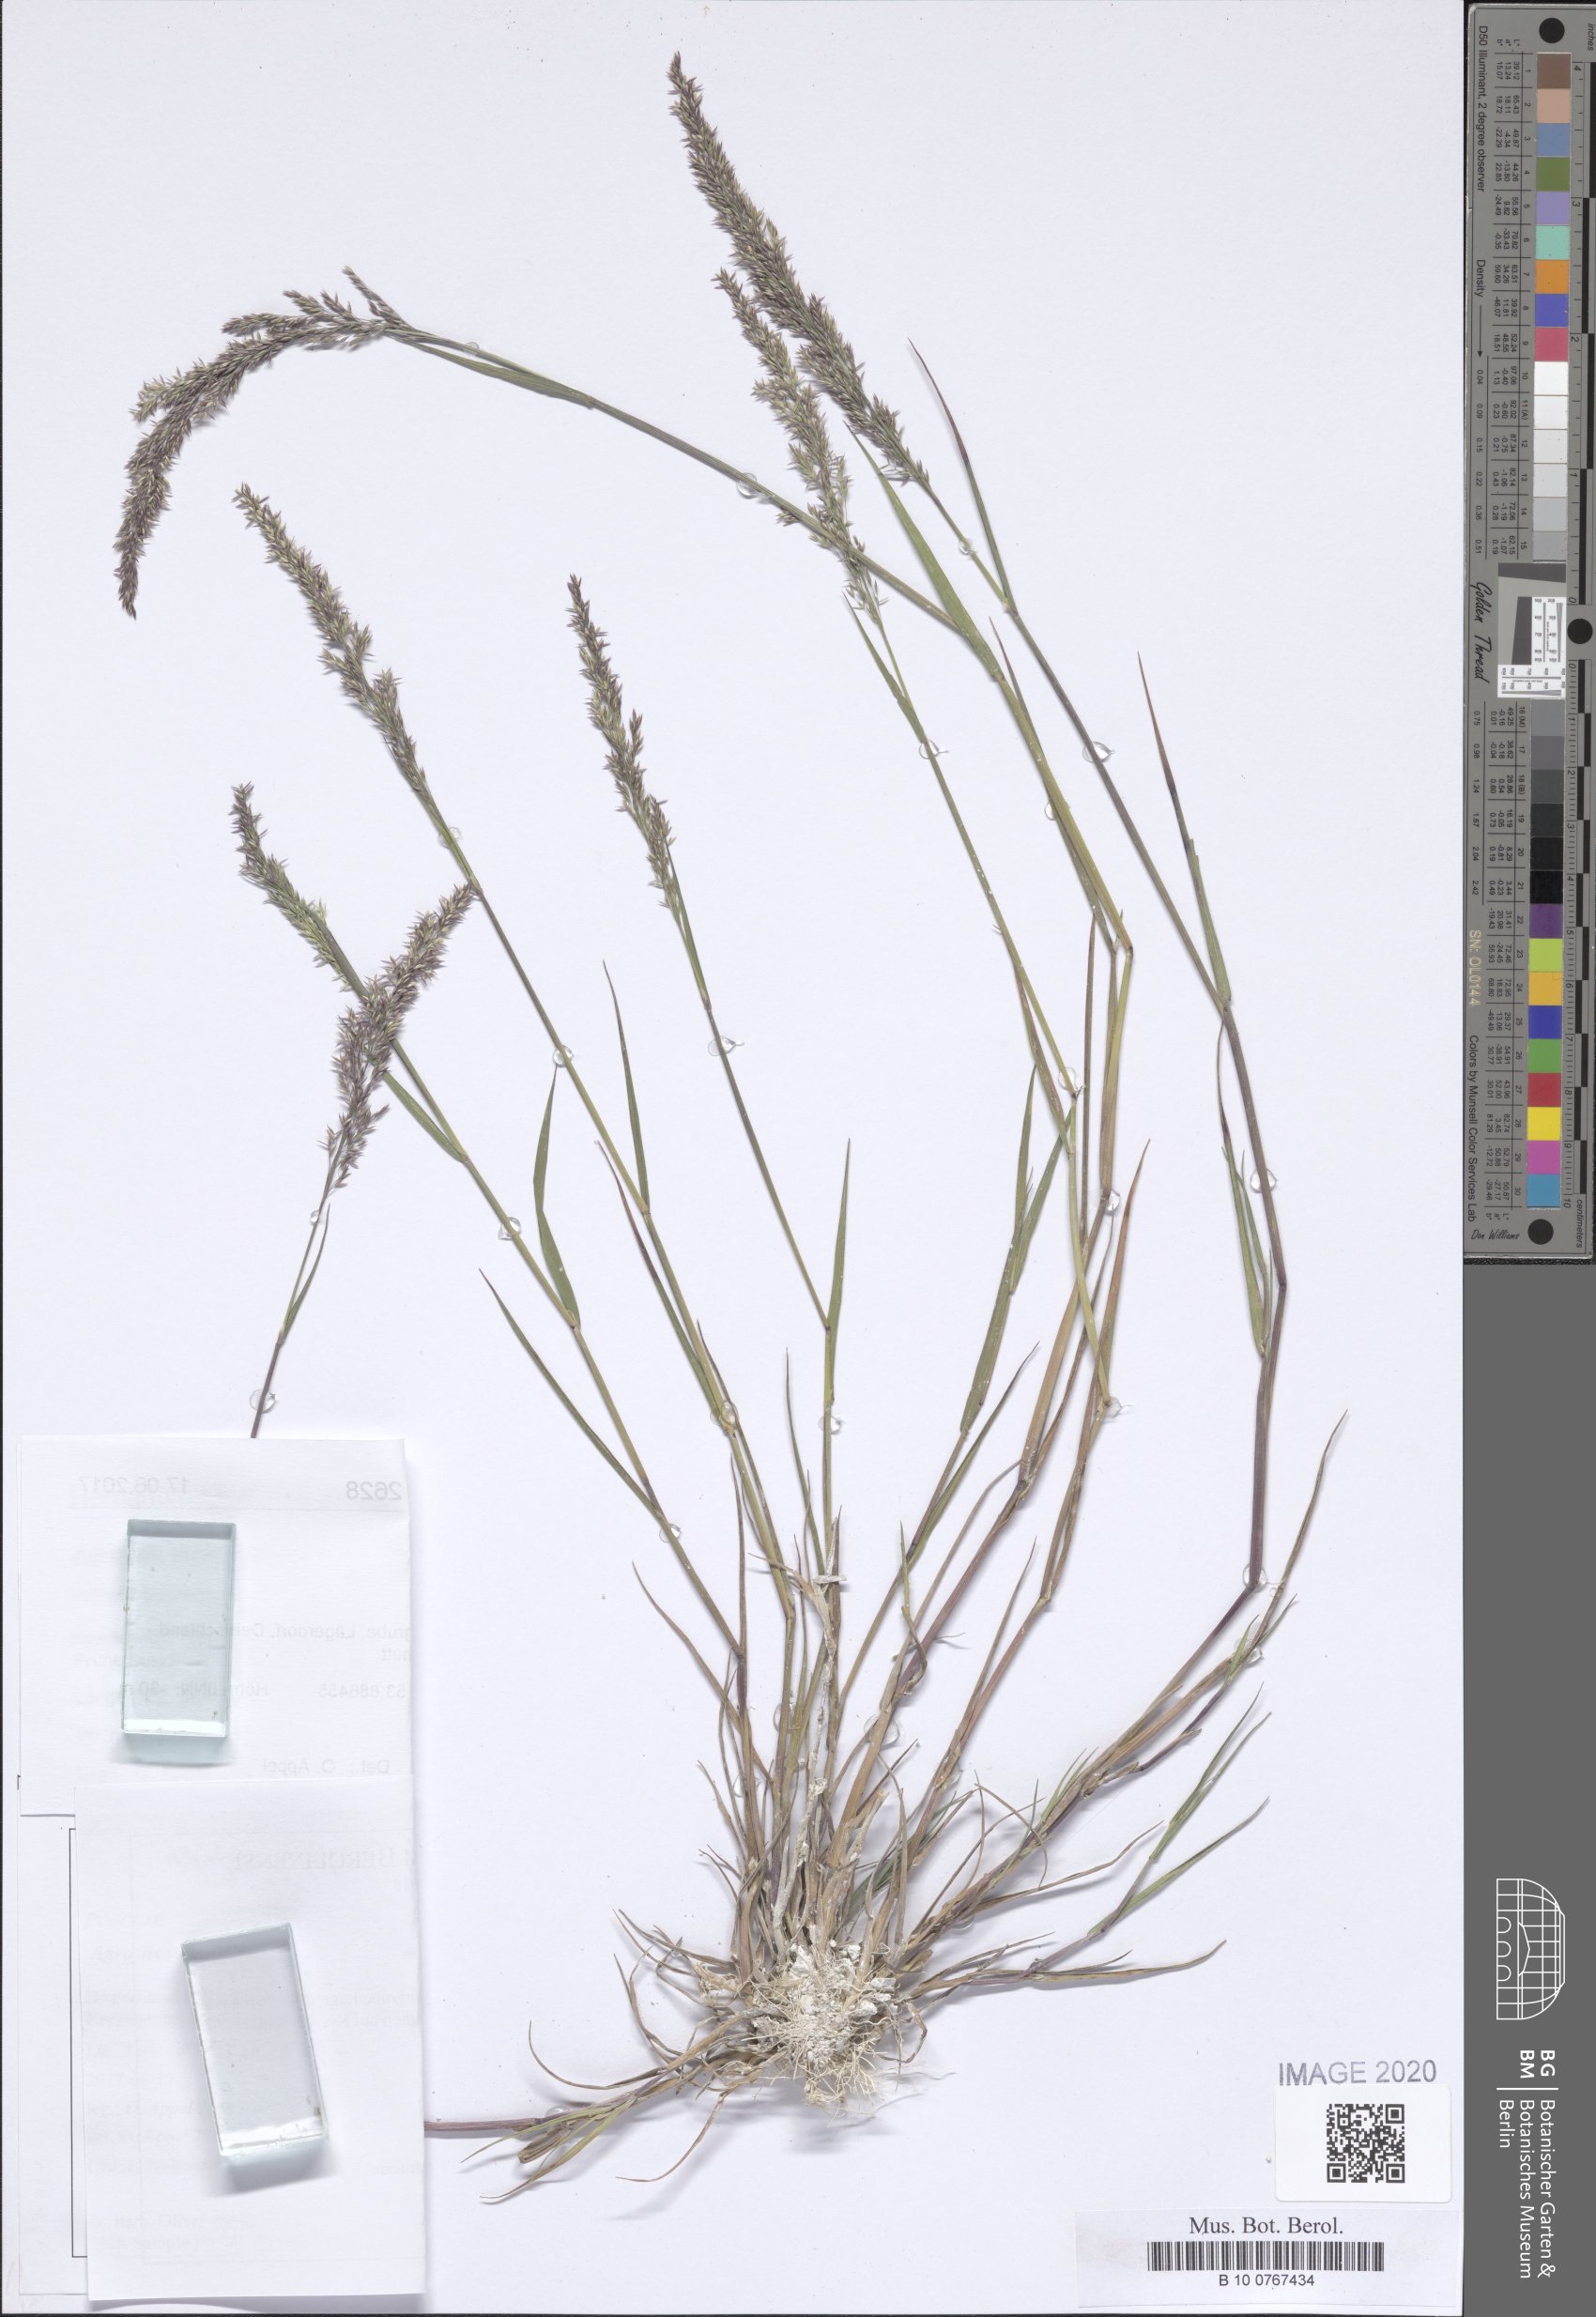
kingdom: Plantae
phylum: Tracheophyta
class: Liliopsida
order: Poales
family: Poaceae
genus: Agrostis
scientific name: Agrostis stolonifera
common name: Creeping bentgrass
